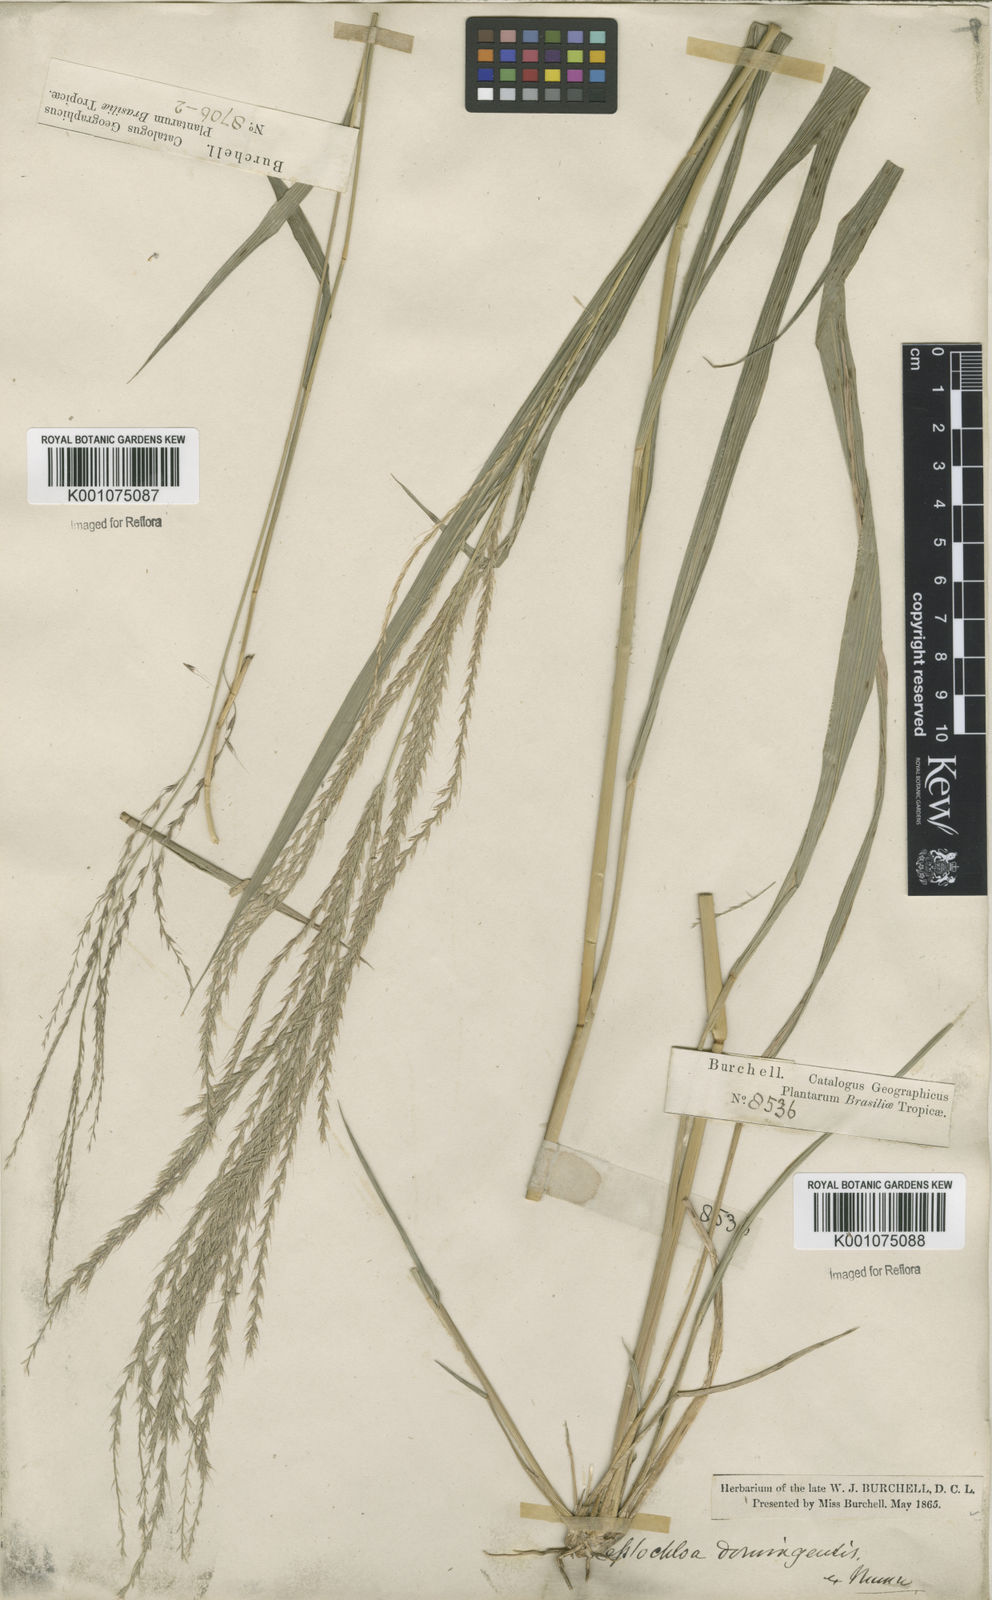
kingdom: Plantae
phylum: Tracheophyta
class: Liliopsida
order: Poales
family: Poaceae
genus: Leptochloa
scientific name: Leptochloa virgata
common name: Tropical sprangletop
